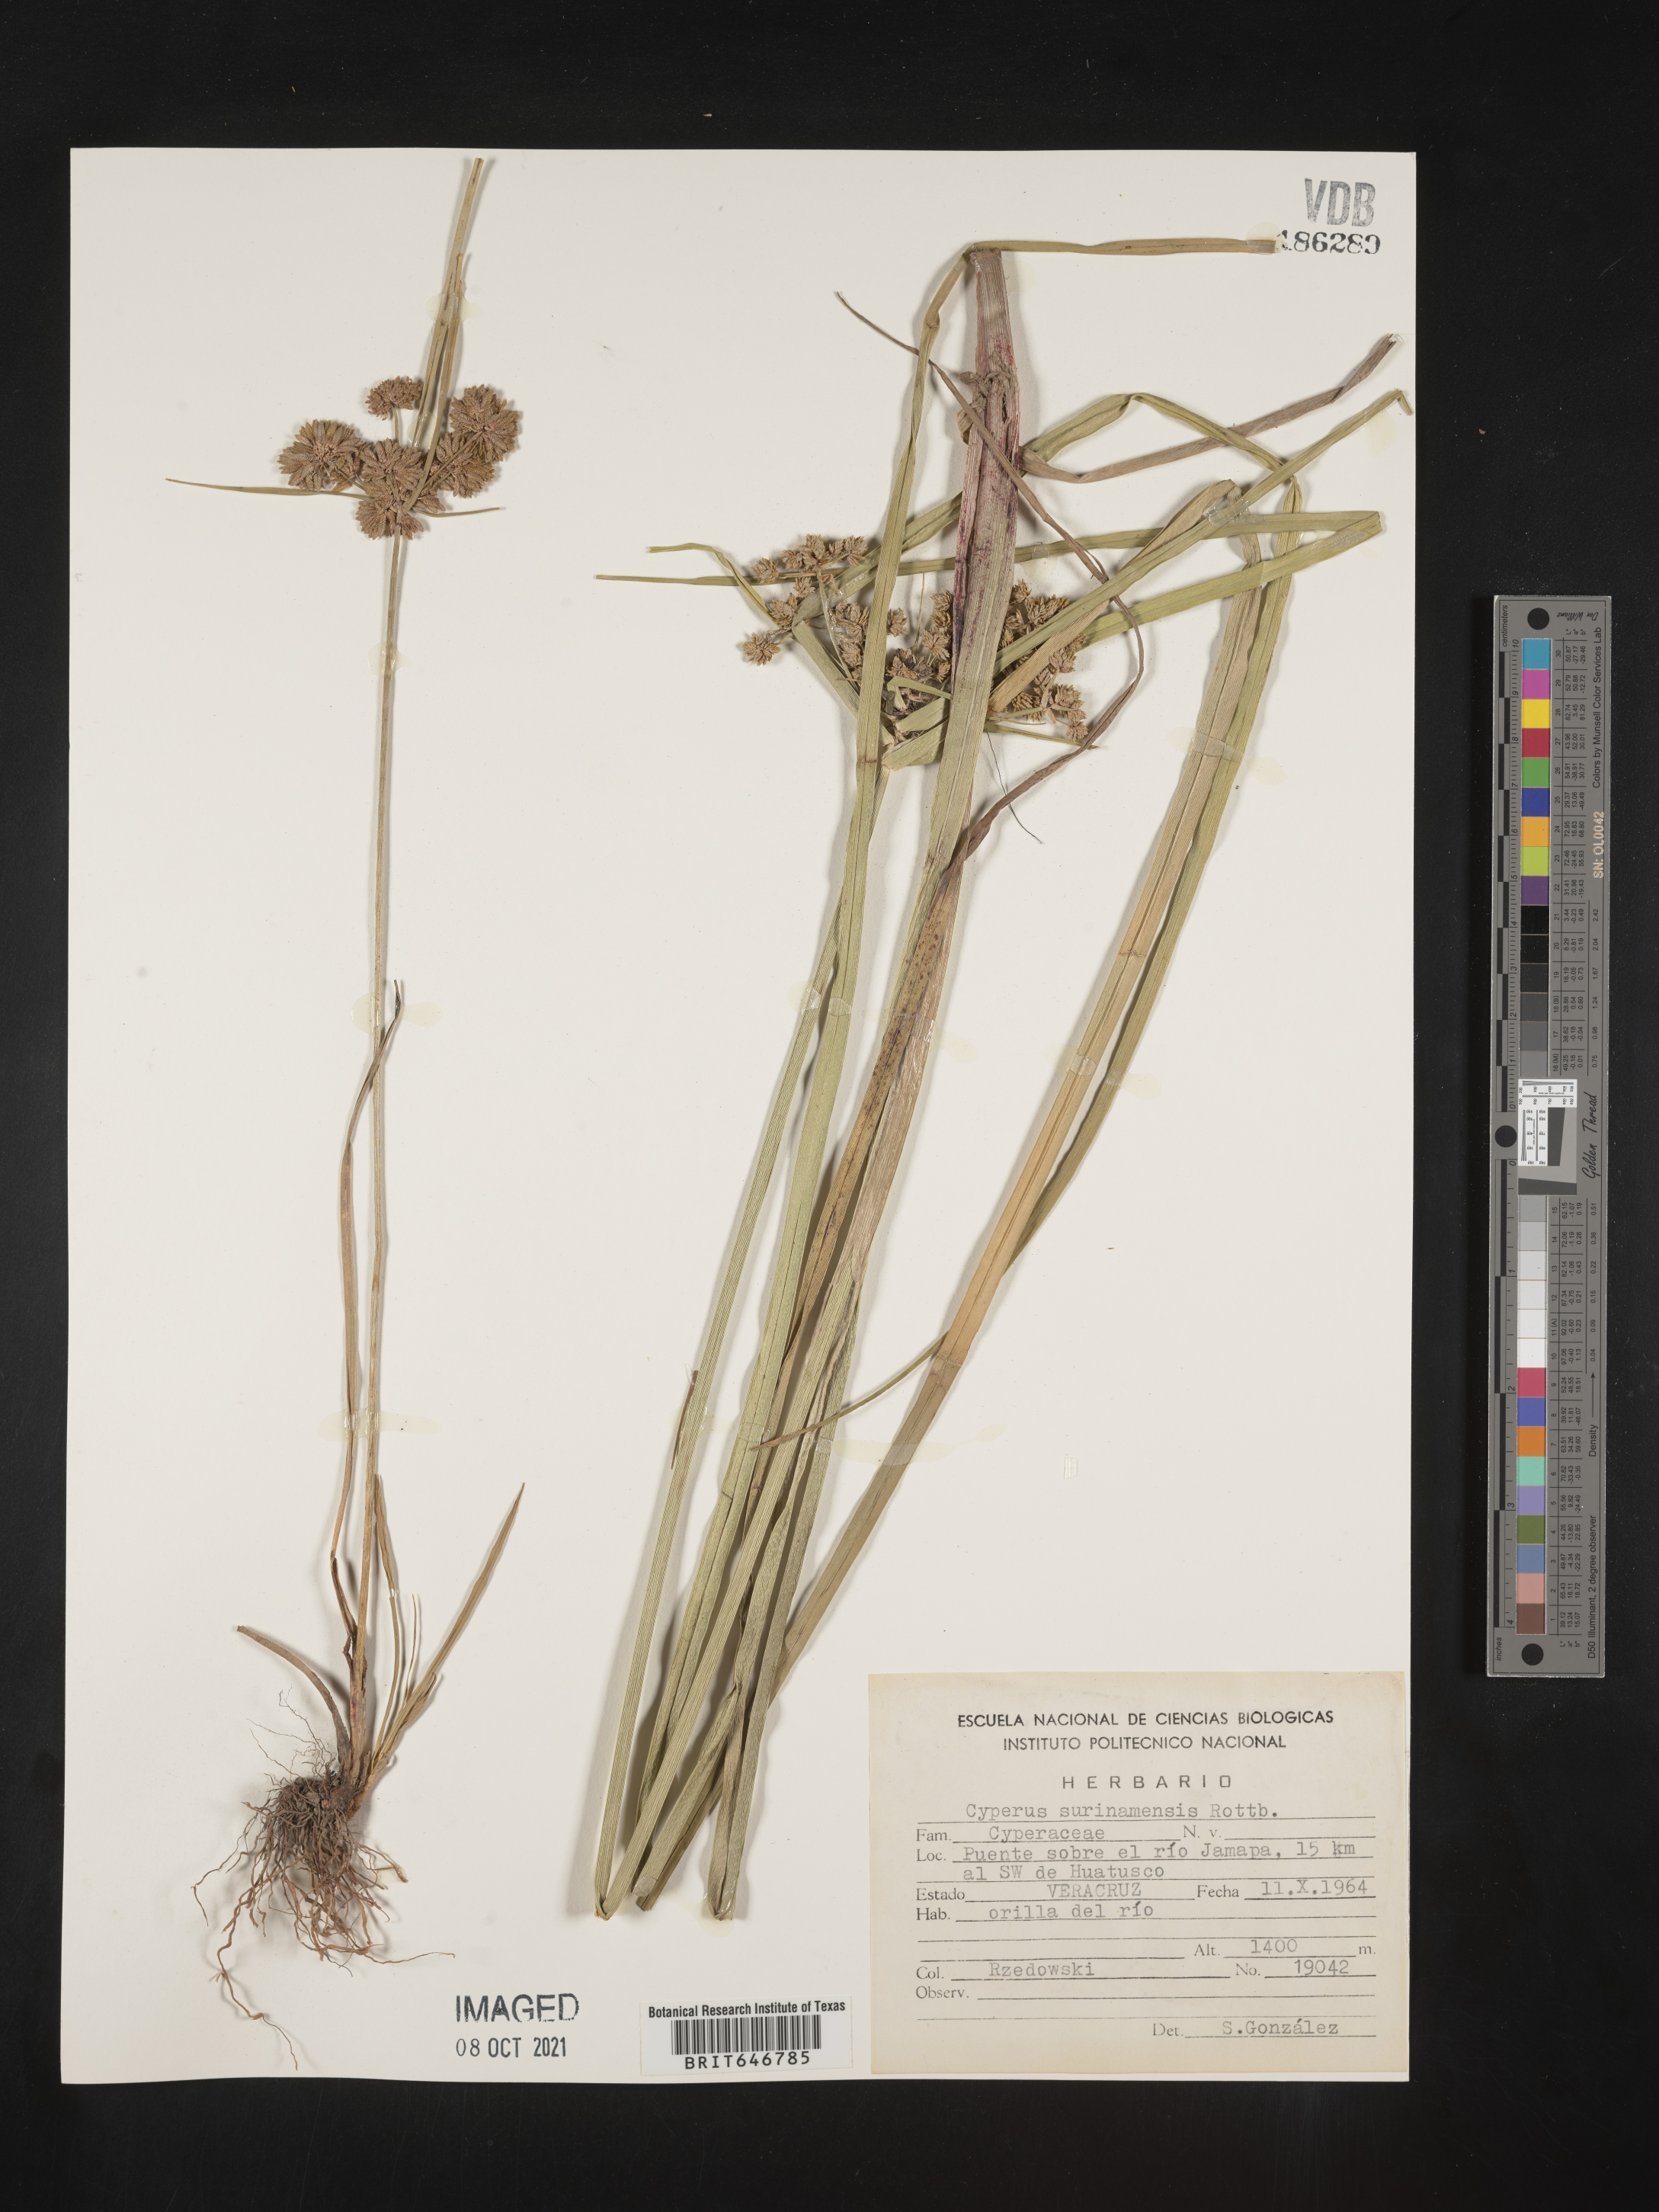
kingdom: Plantae
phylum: Tracheophyta
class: Liliopsida
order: Poales
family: Cyperaceae
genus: Cyperus
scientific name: Cyperus
